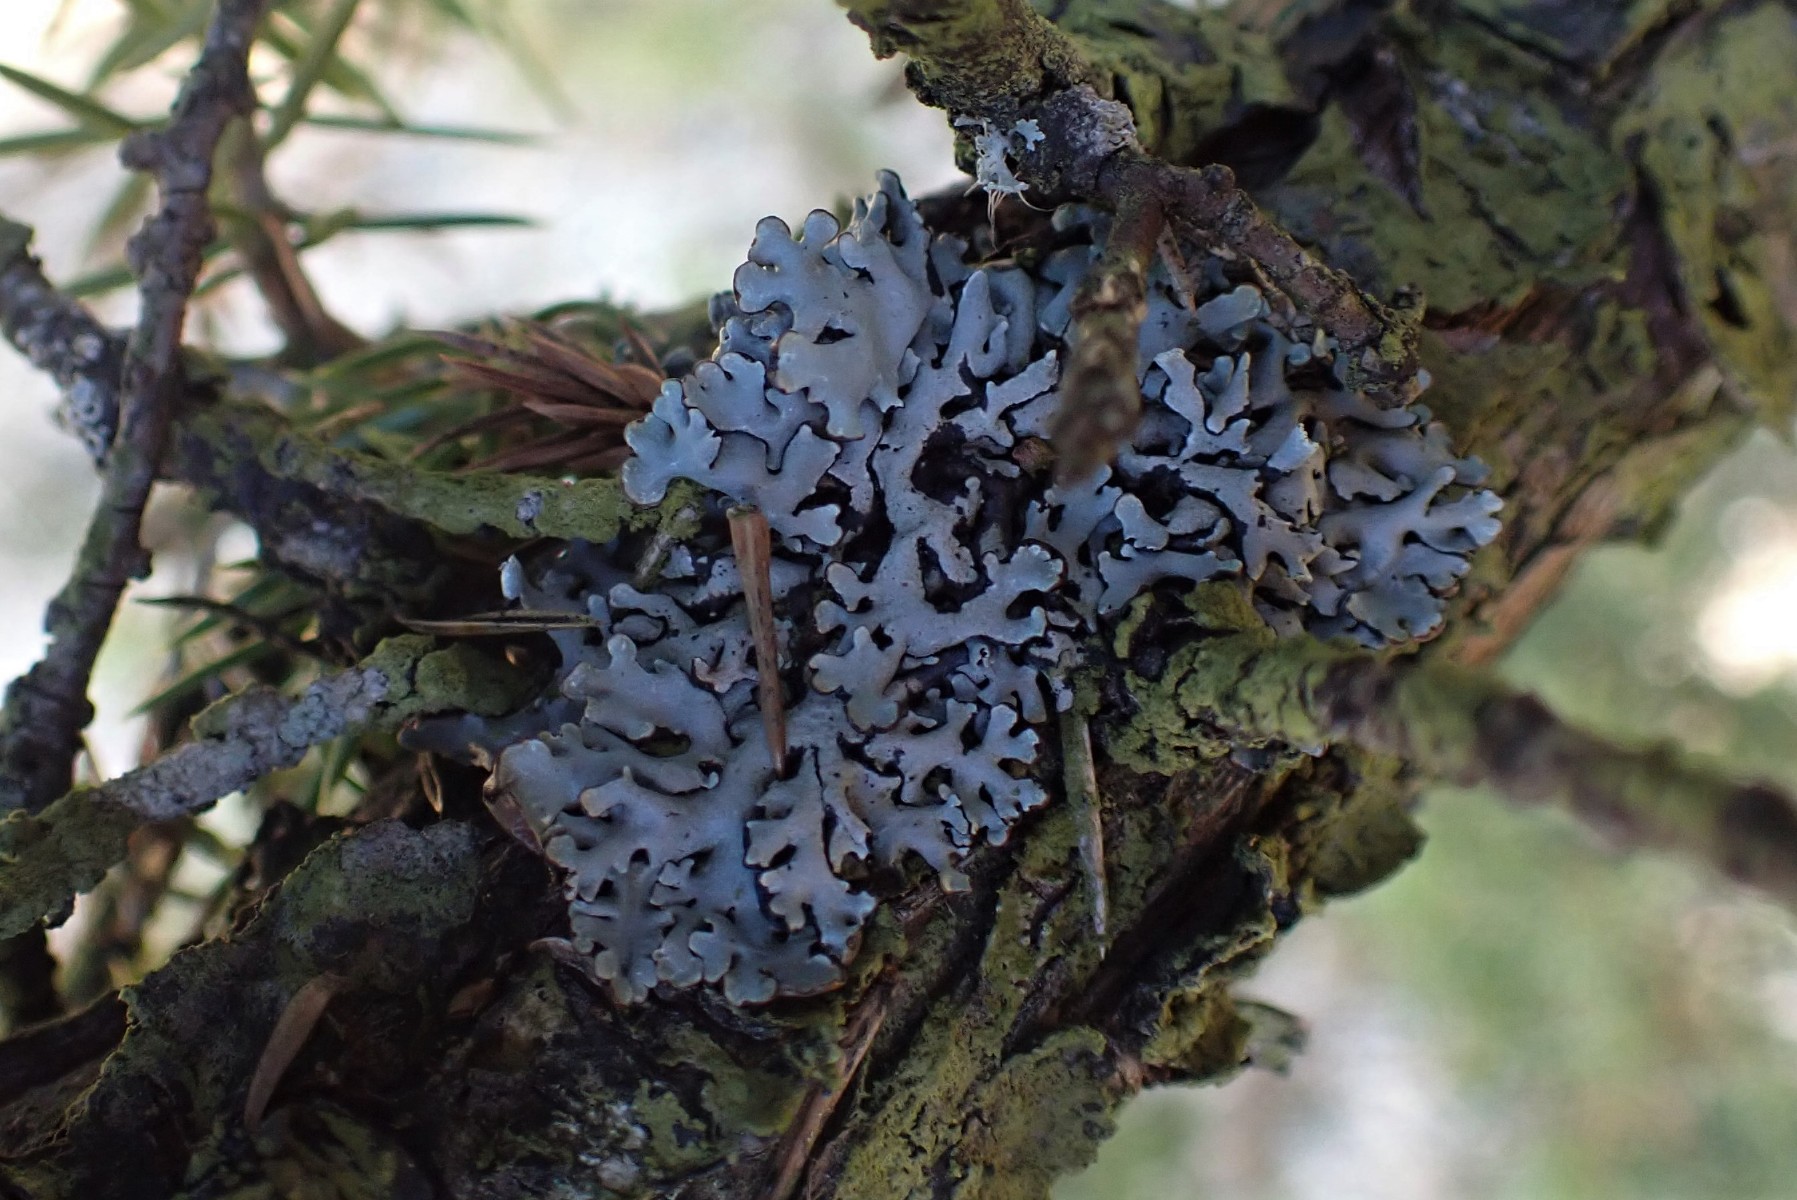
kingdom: Fungi
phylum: Ascomycota
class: Lecanoromycetes
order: Lecanorales
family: Parmeliaceae
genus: Hypogymnia
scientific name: Hypogymnia physodes
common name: almindelig kvistlav
